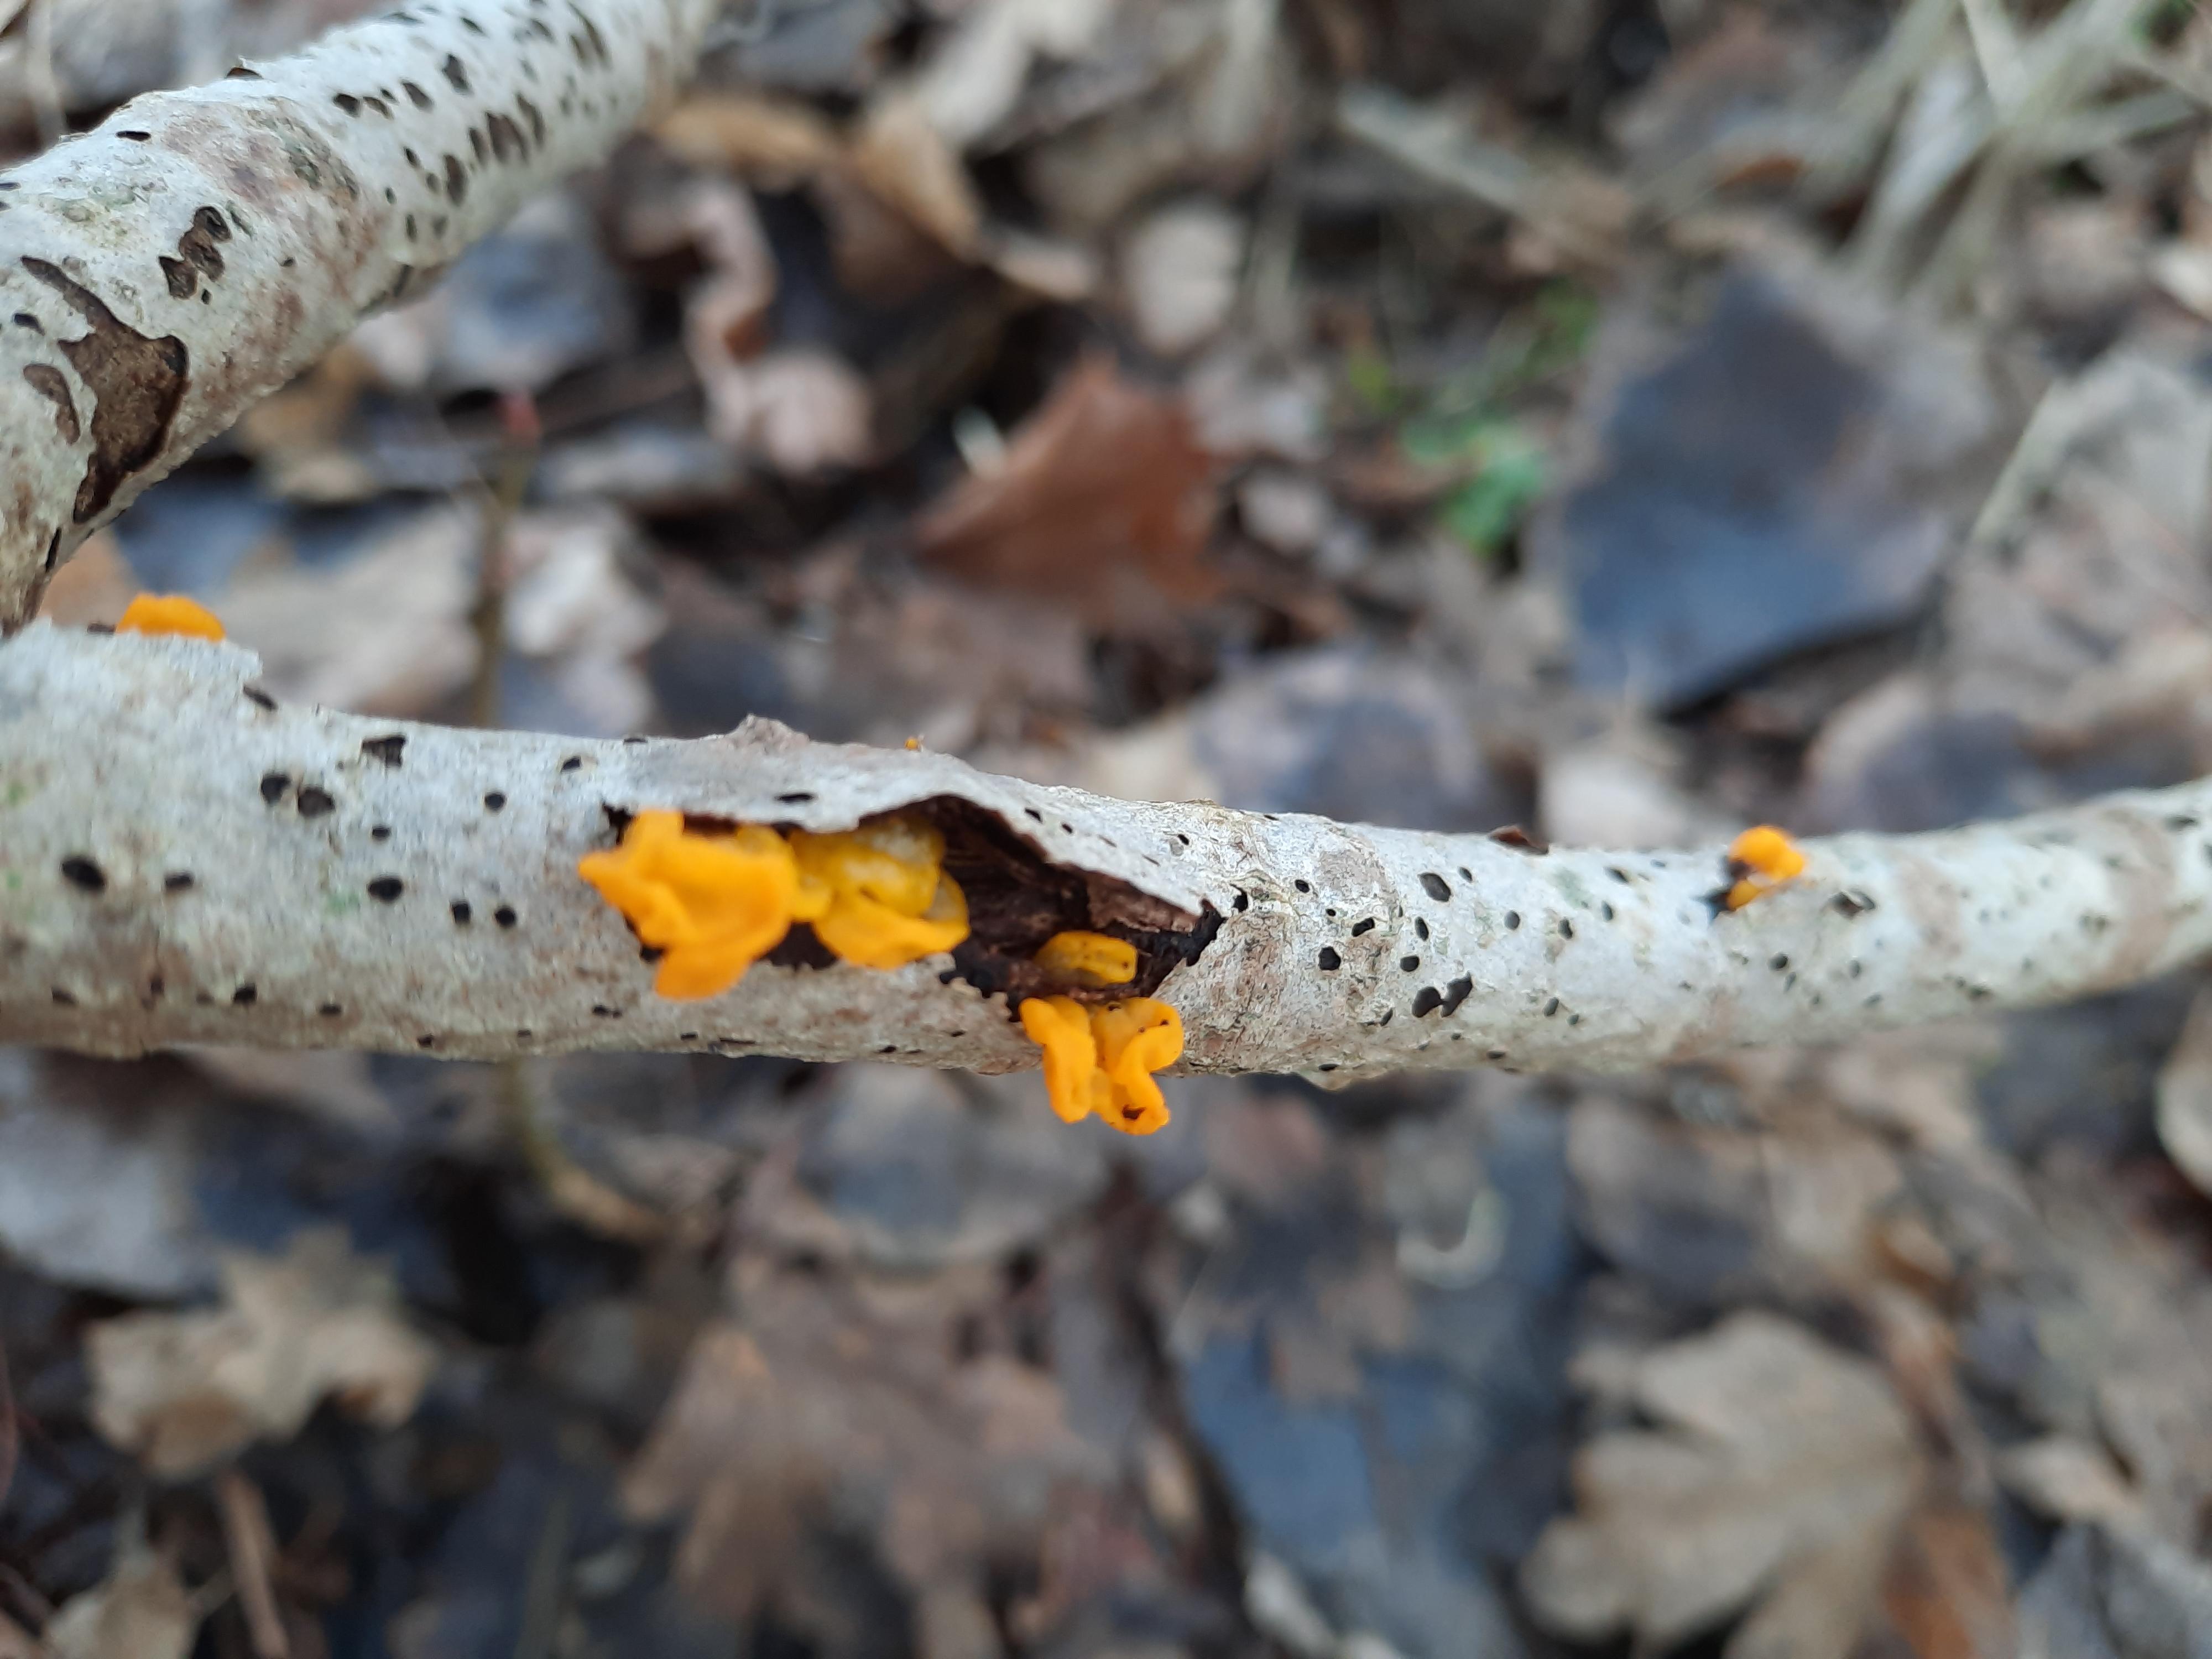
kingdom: Fungi
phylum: Basidiomycota
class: Tremellomycetes
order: Tremellales
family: Tremellaceae
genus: Tremella
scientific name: Tremella mesenterica
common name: gul bævresvamp
